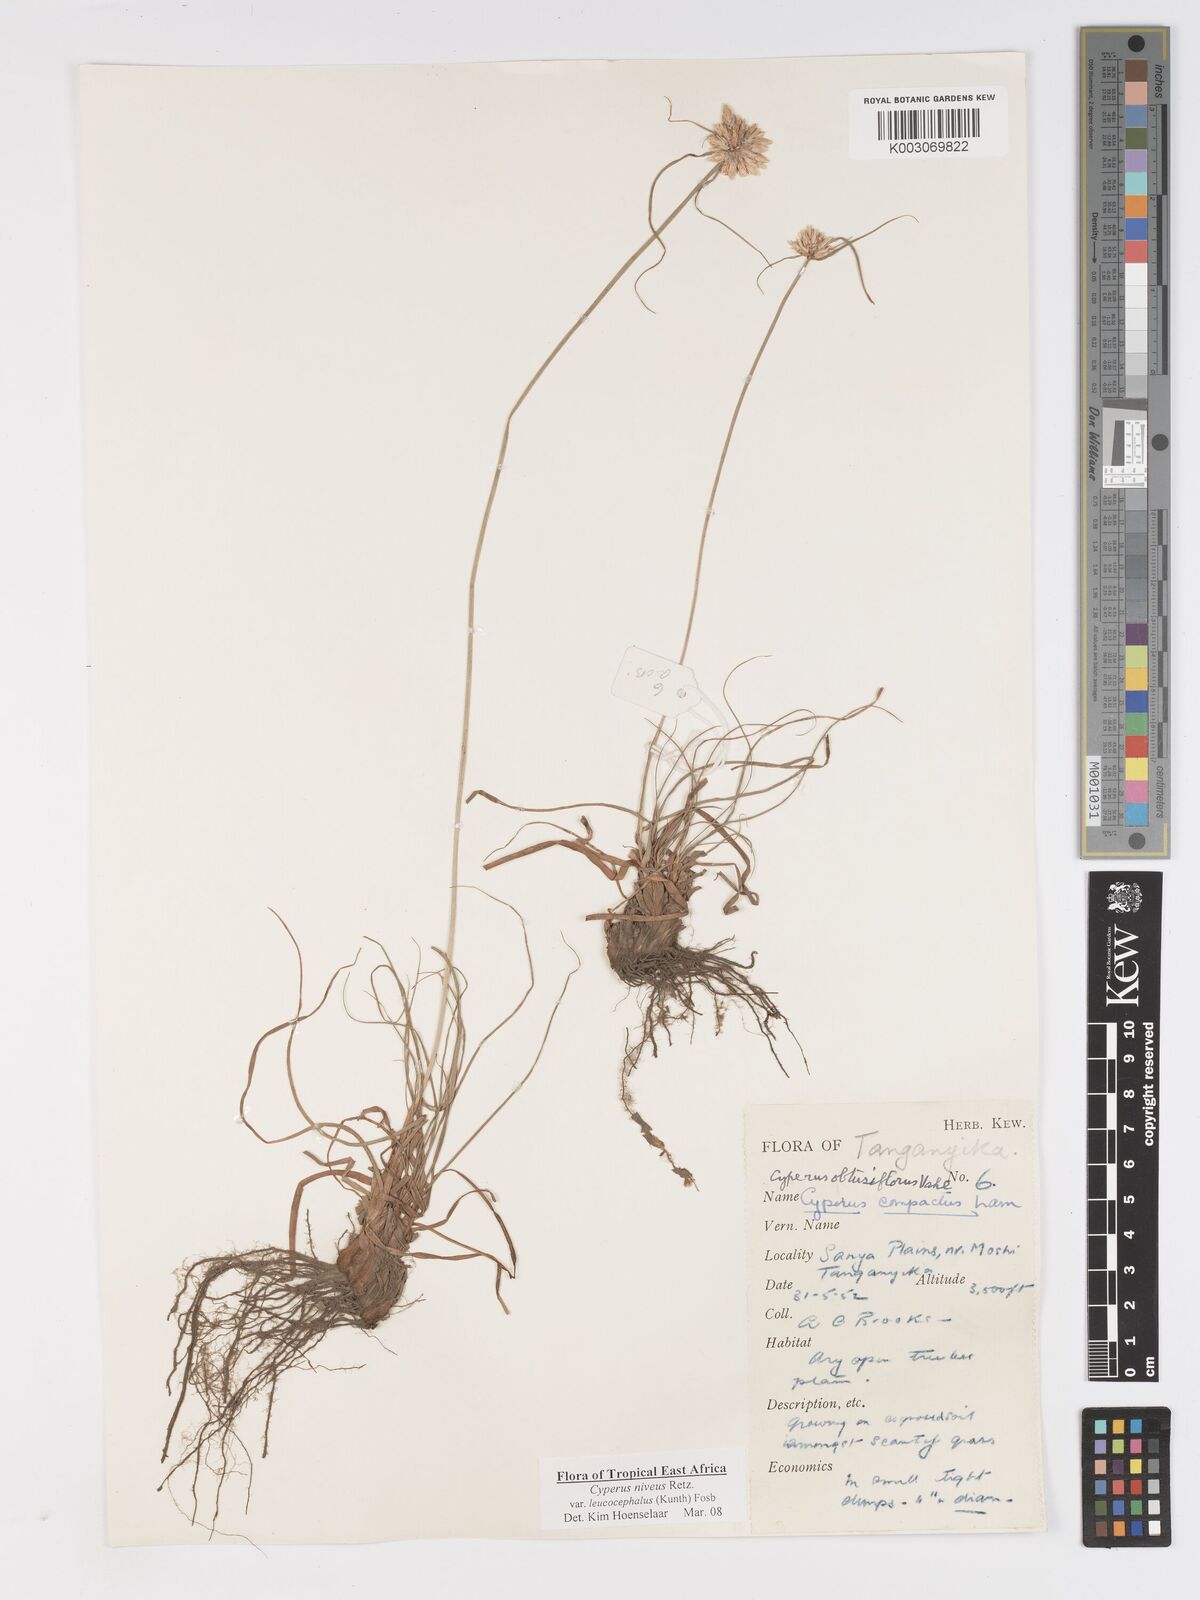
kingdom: Plantae
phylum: Tracheophyta
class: Liliopsida
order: Poales
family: Cyperaceae
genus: Cyperus
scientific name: Cyperus niveus
